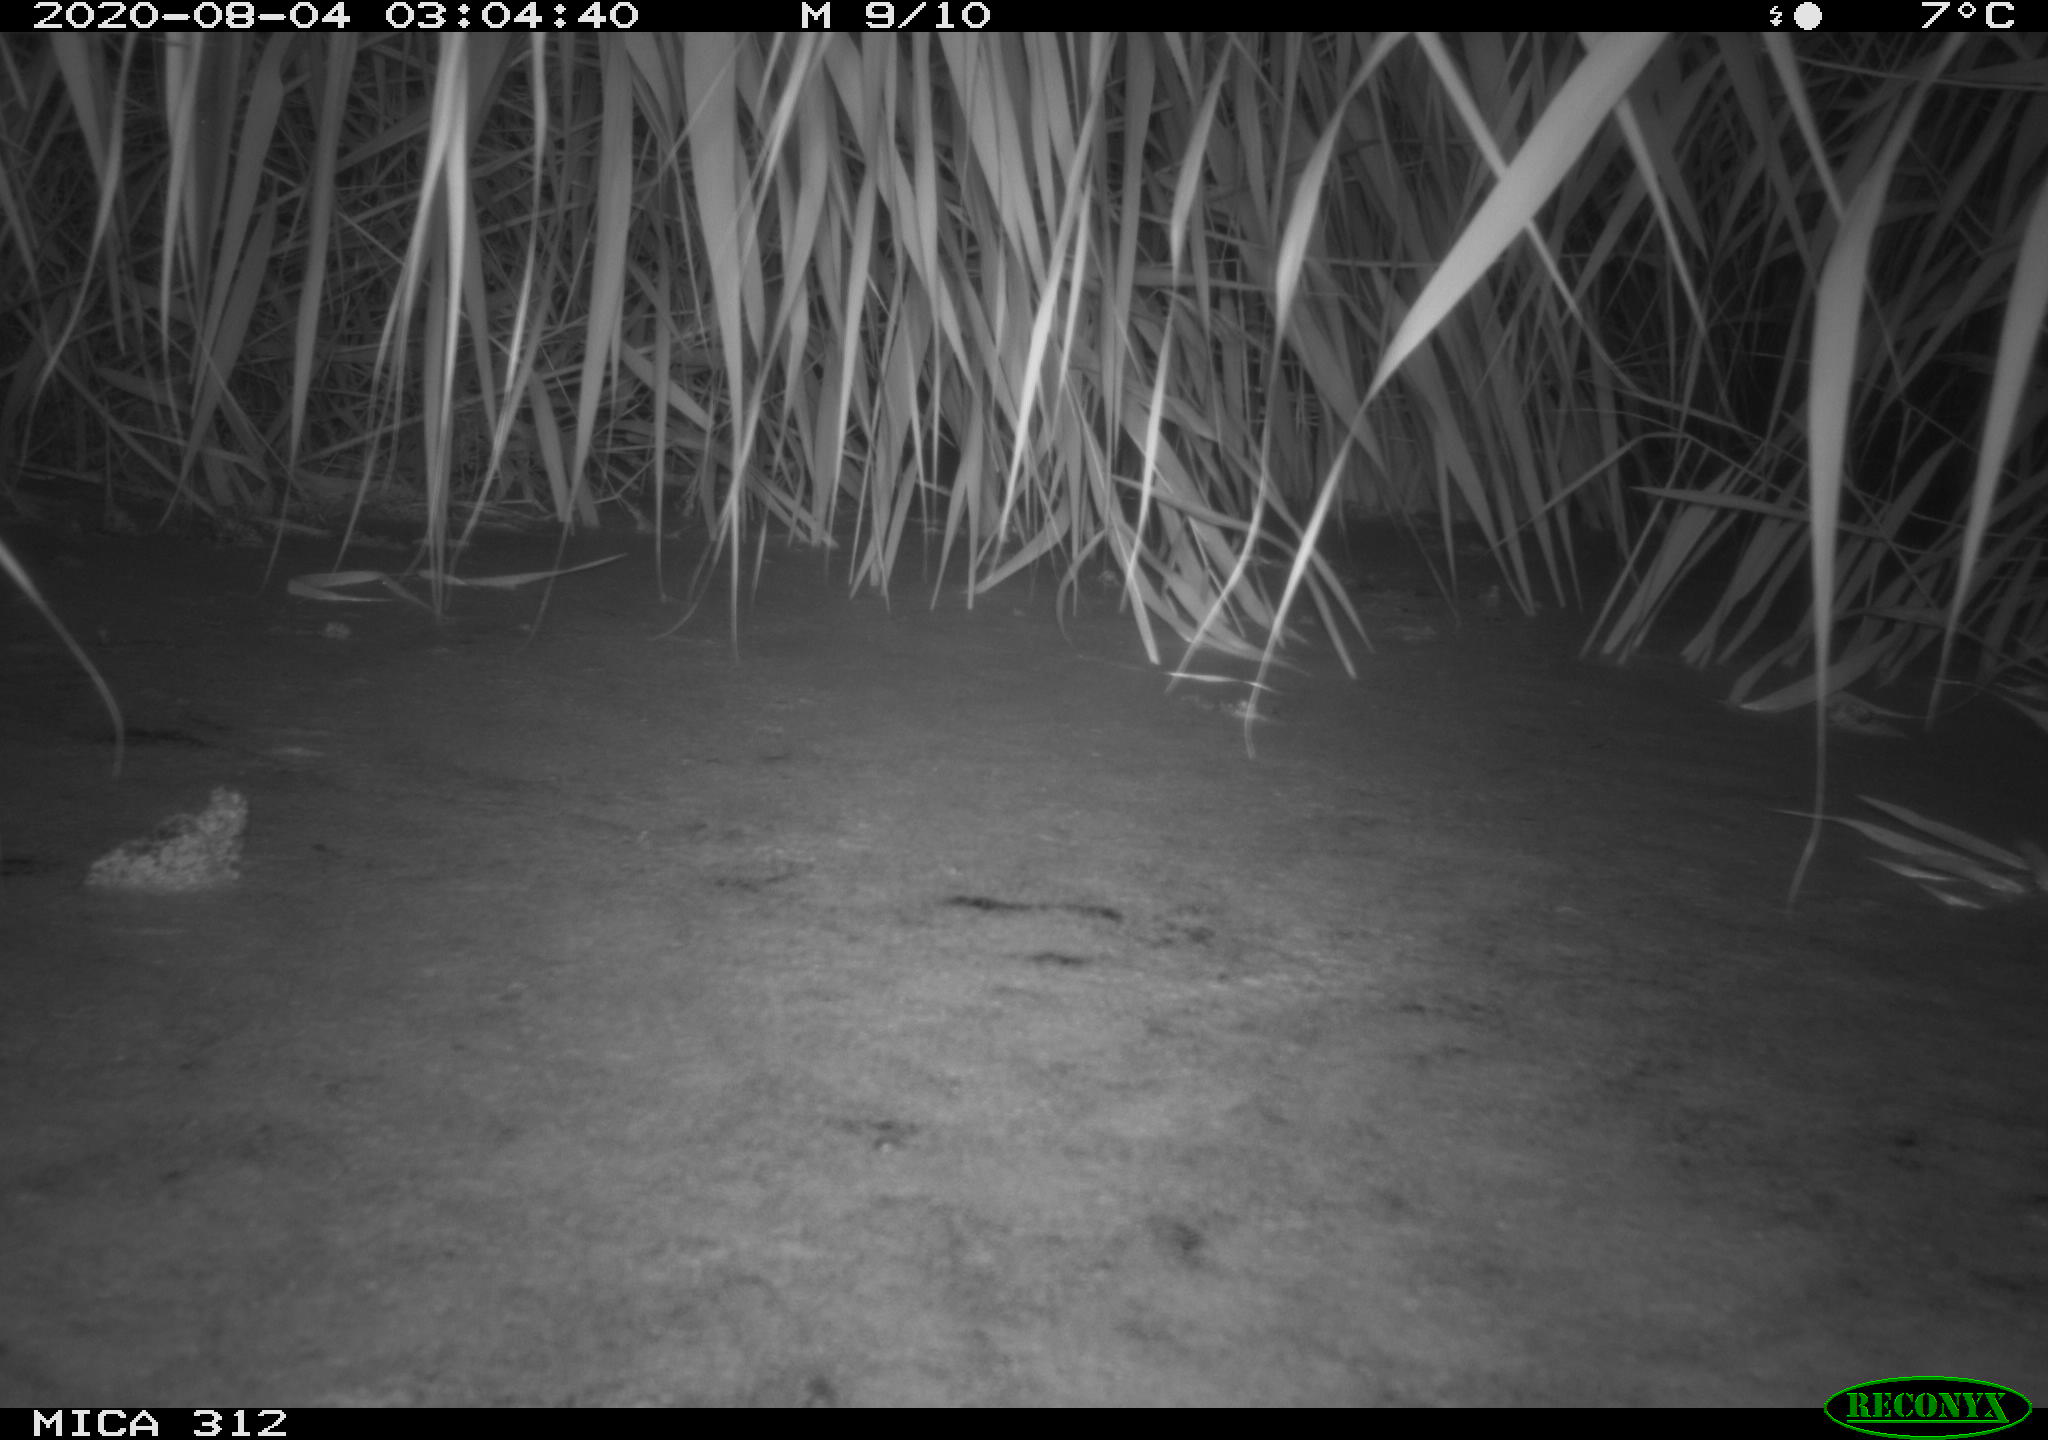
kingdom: Animalia
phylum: Chordata
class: Mammalia
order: Rodentia
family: Muridae
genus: Rattus
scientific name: Rattus norvegicus
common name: Brown rat
